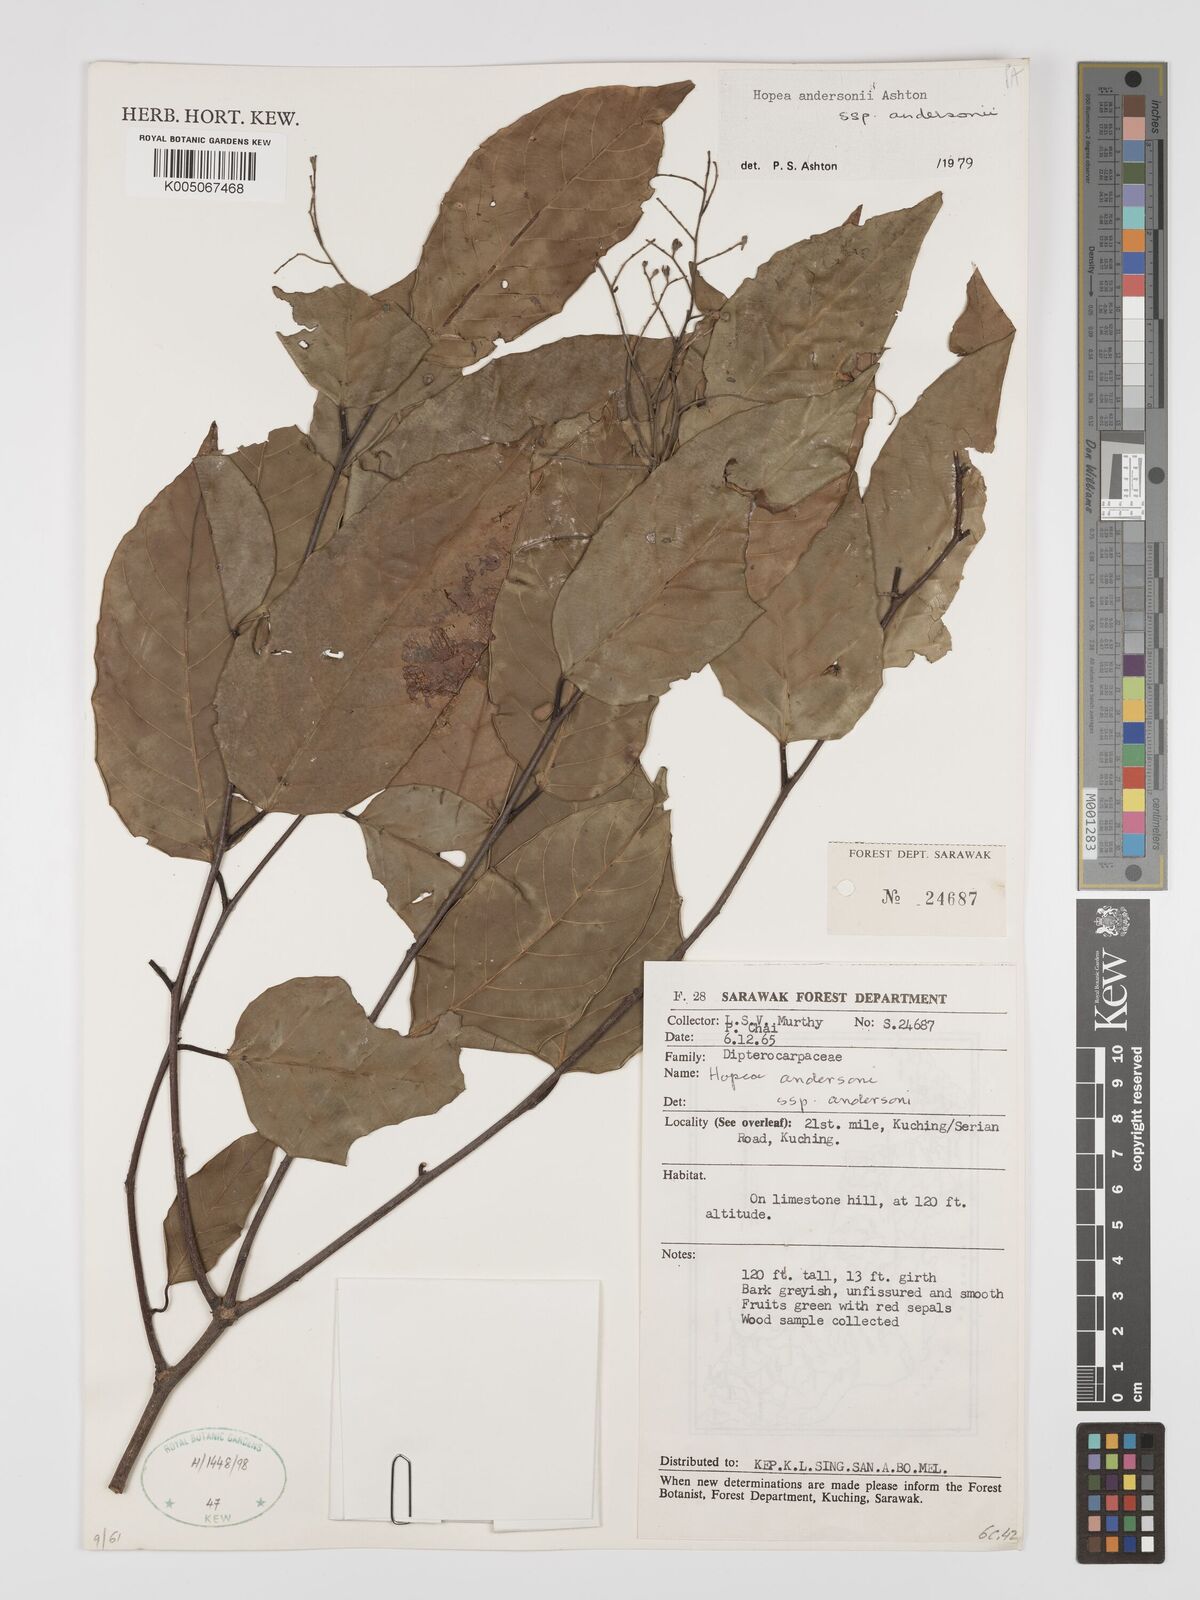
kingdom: Plantae
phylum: Tracheophyta
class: Magnoliopsida
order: Malvales
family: Dipterocarpaceae
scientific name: Dipterocarpaceae
